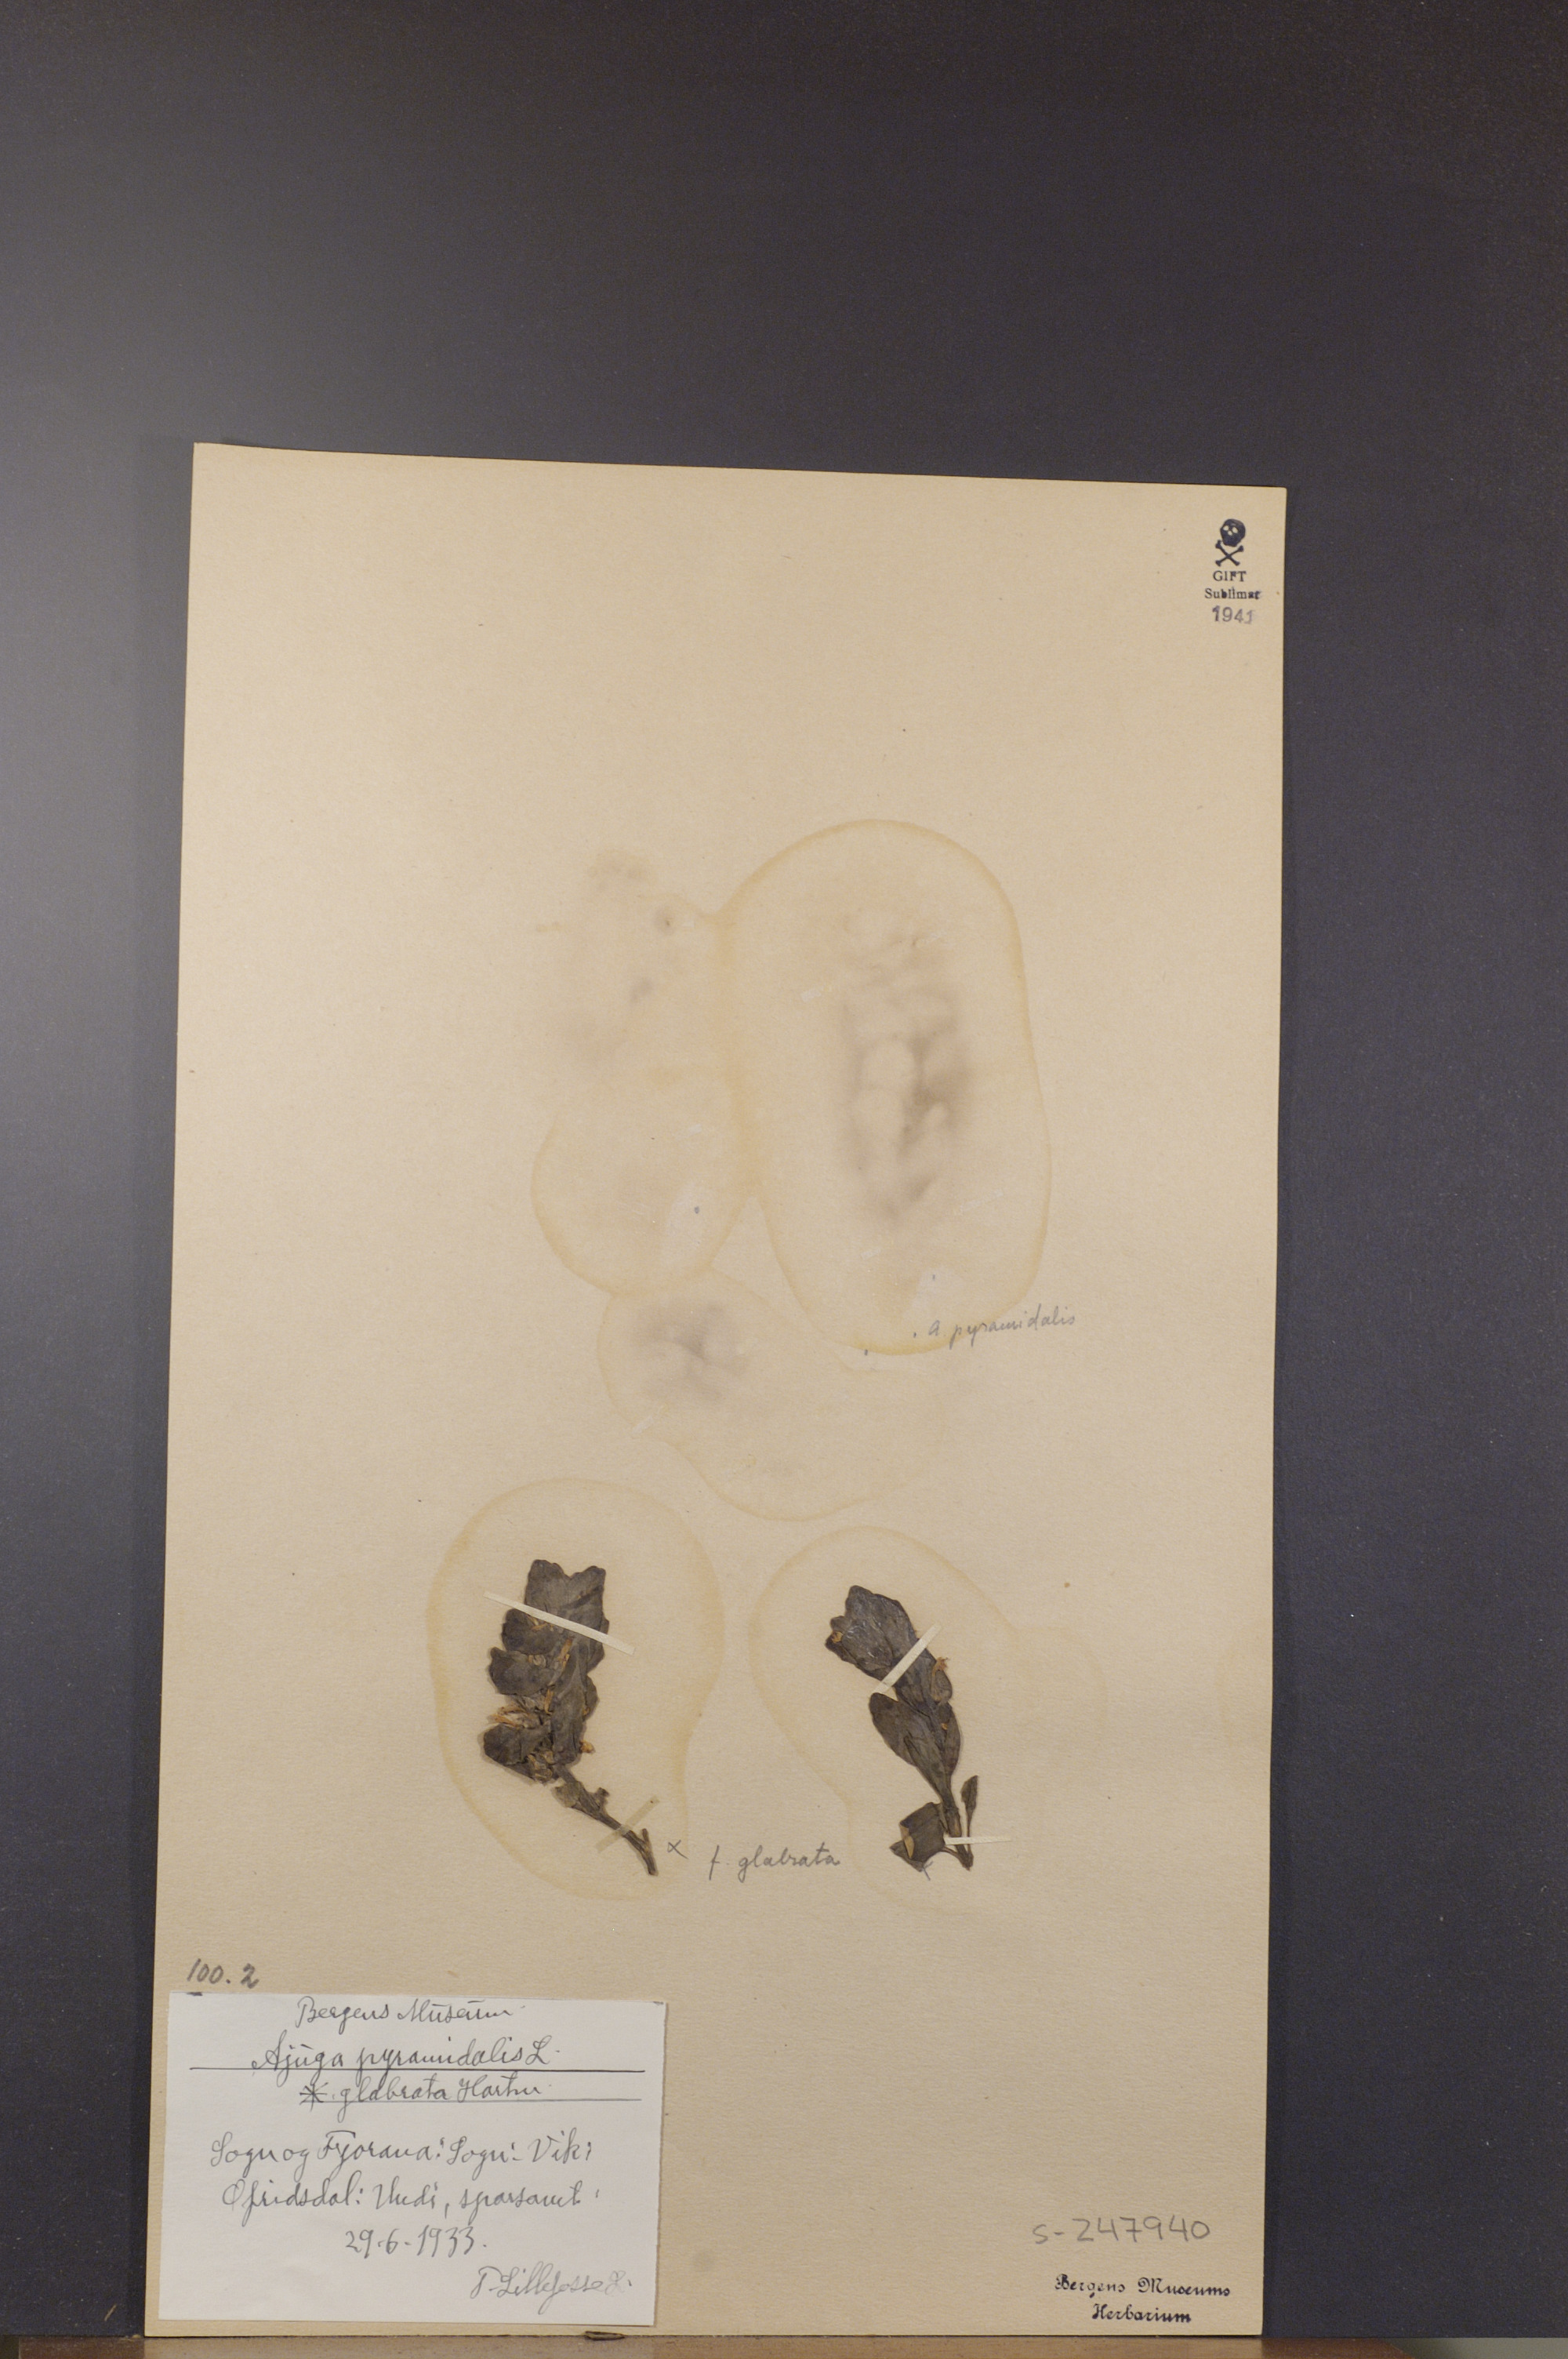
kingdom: Plantae
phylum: Tracheophyta
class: Magnoliopsida
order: Lamiales
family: Lamiaceae
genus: Ajuga
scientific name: Ajuga pyramidalis
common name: Pyramid bugle
